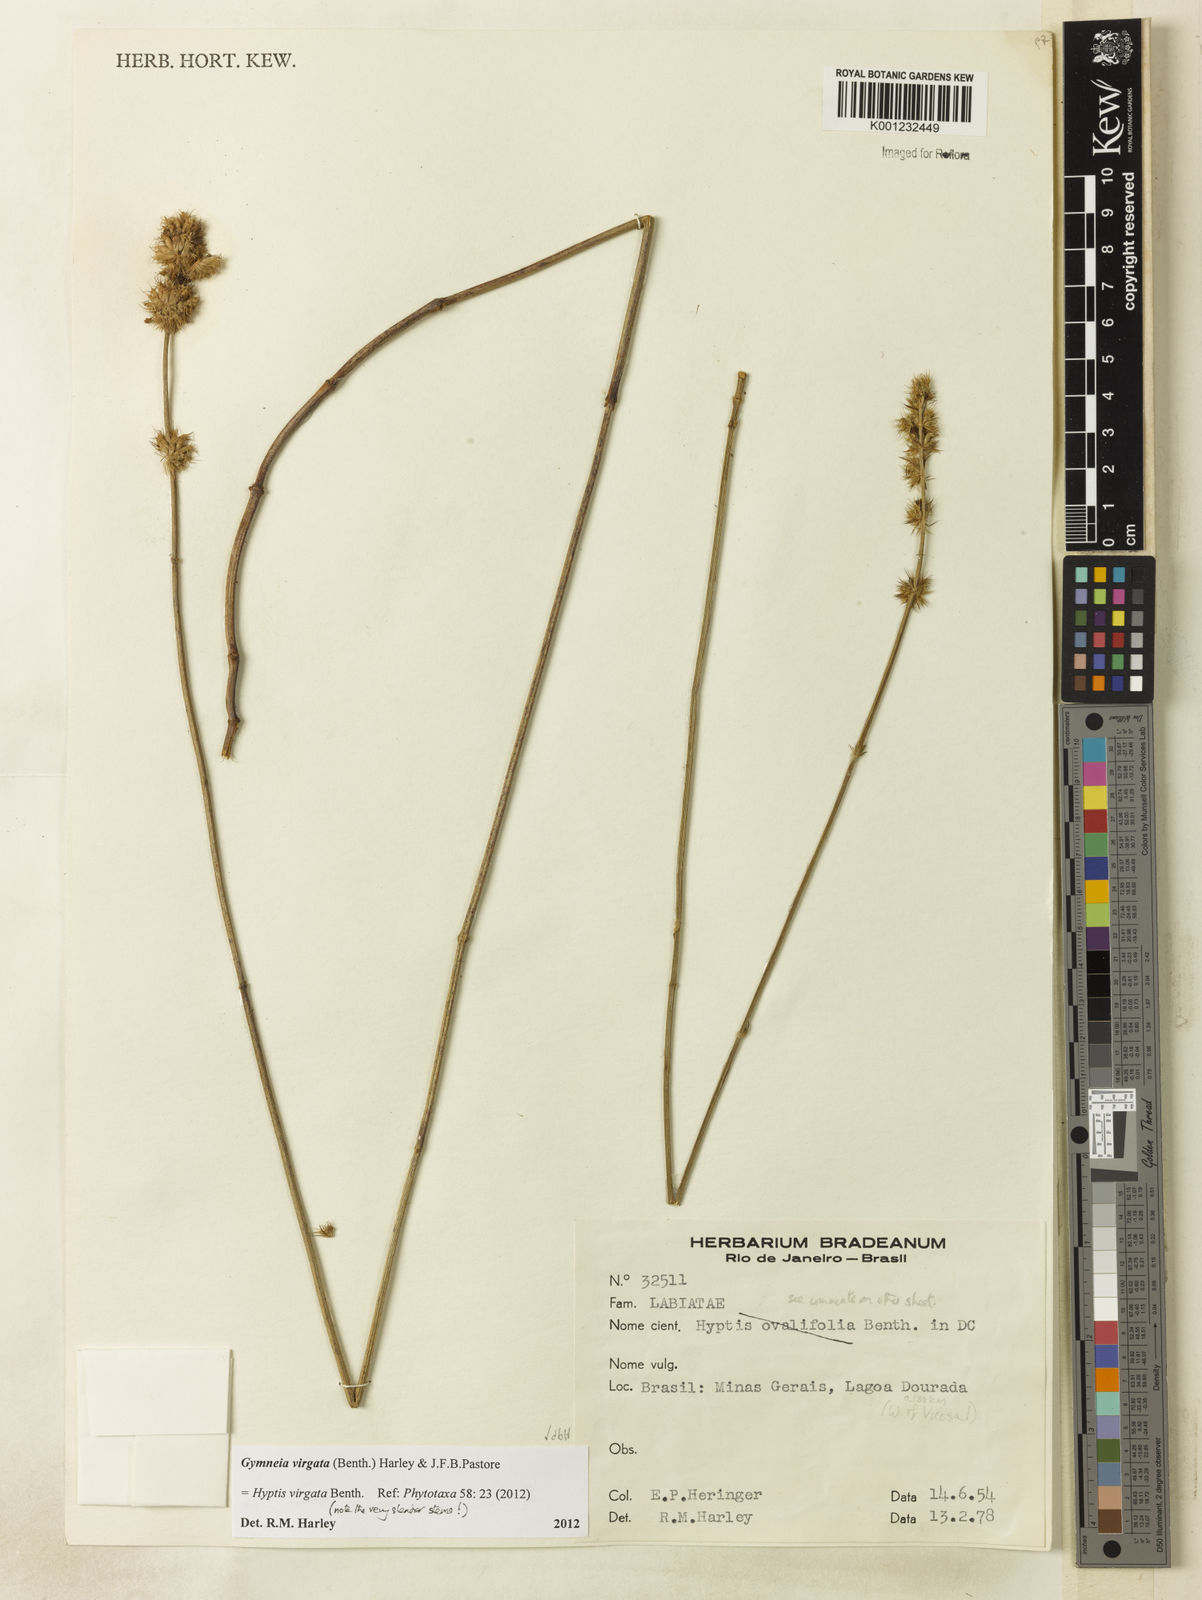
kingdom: Plantae
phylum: Tracheophyta
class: Magnoliopsida
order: Lamiales
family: Lamiaceae
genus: Gymneia
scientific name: Gymneia virgata
